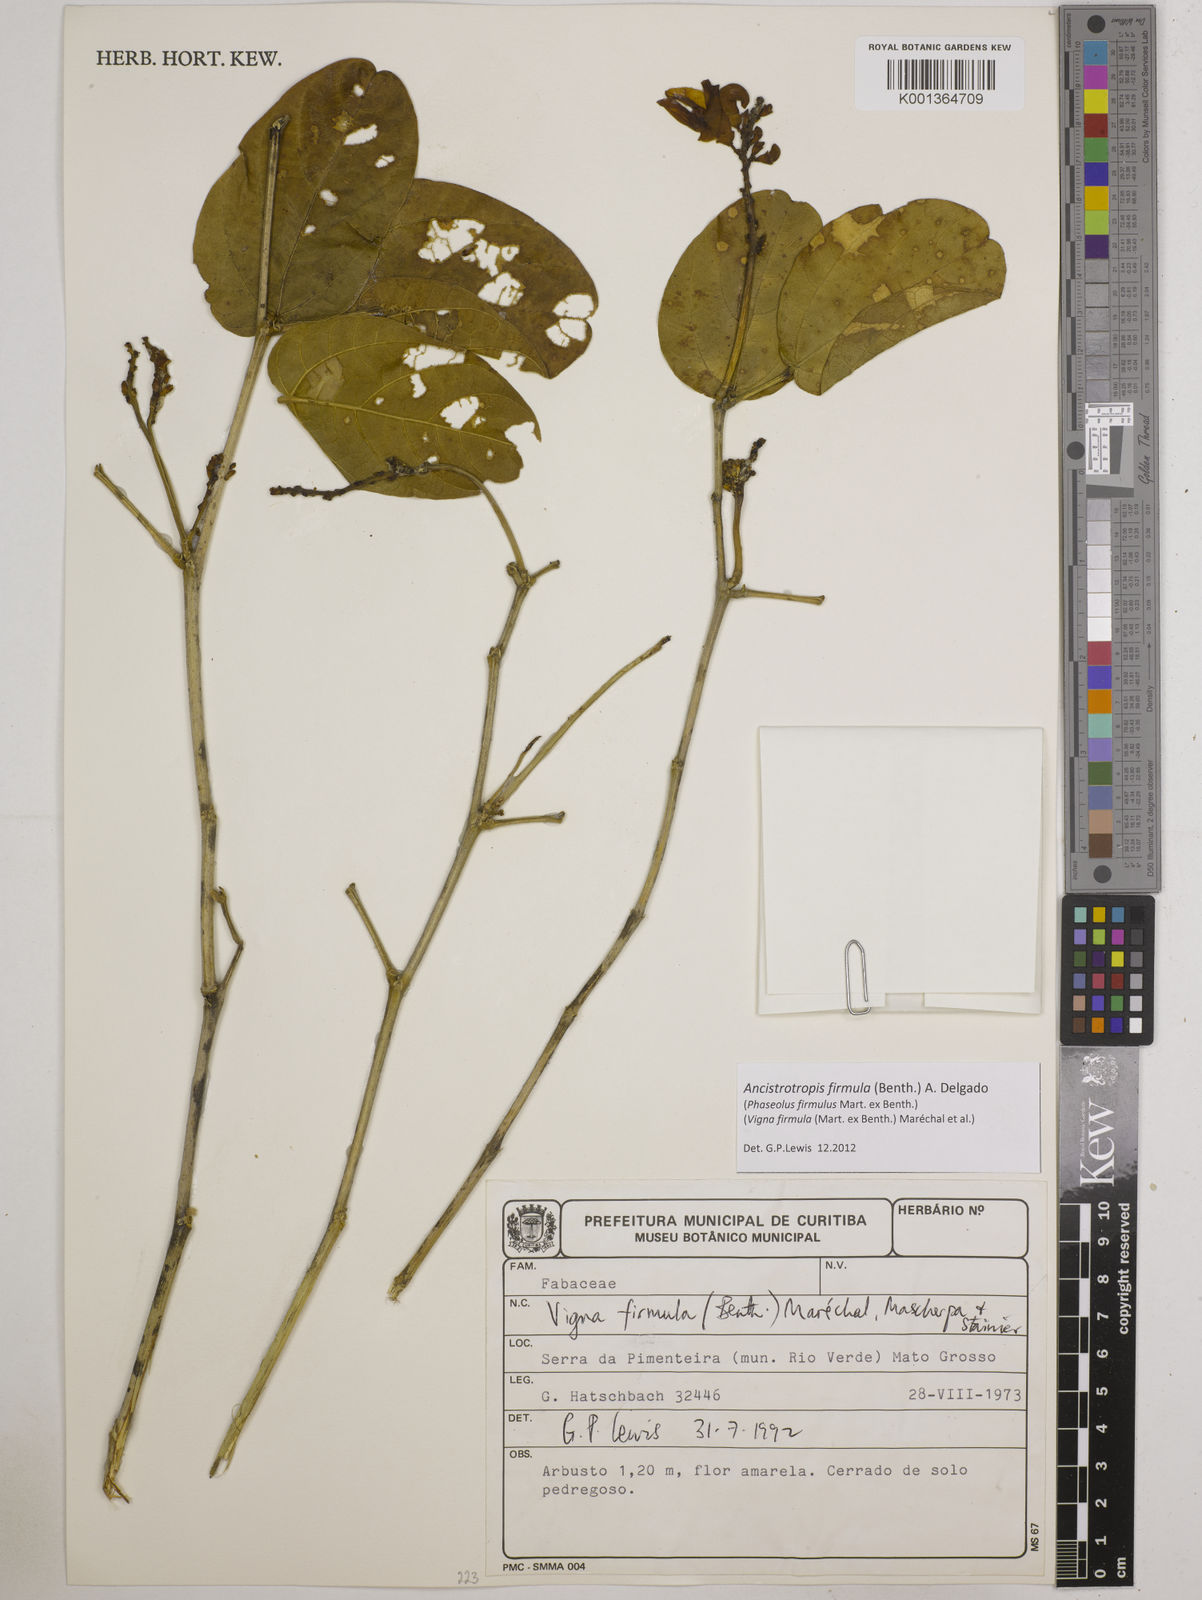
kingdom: Plantae
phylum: Tracheophyta
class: Magnoliopsida
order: Fabales
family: Fabaceae
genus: Ancistrotropis
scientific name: Ancistrotropis firmula
